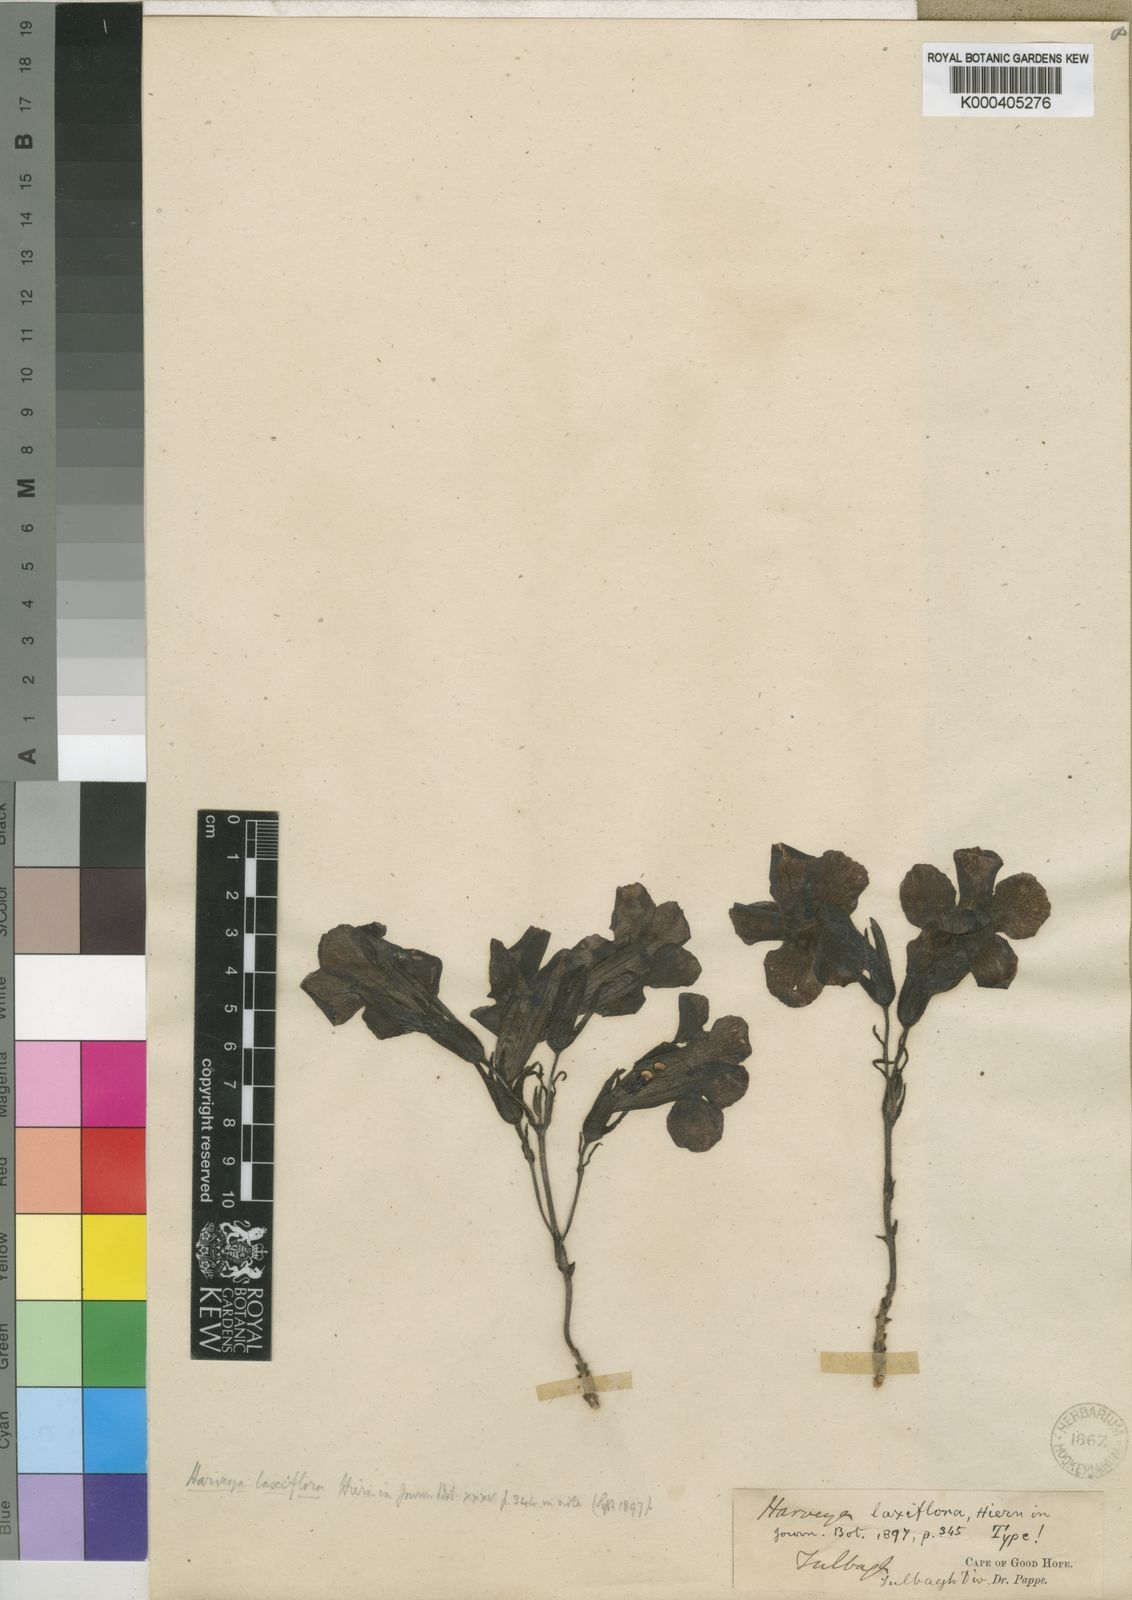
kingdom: Plantae
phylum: Tracheophyta
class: Magnoliopsida
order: Lamiales
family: Orobanchaceae
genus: Harveya
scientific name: Harveya
